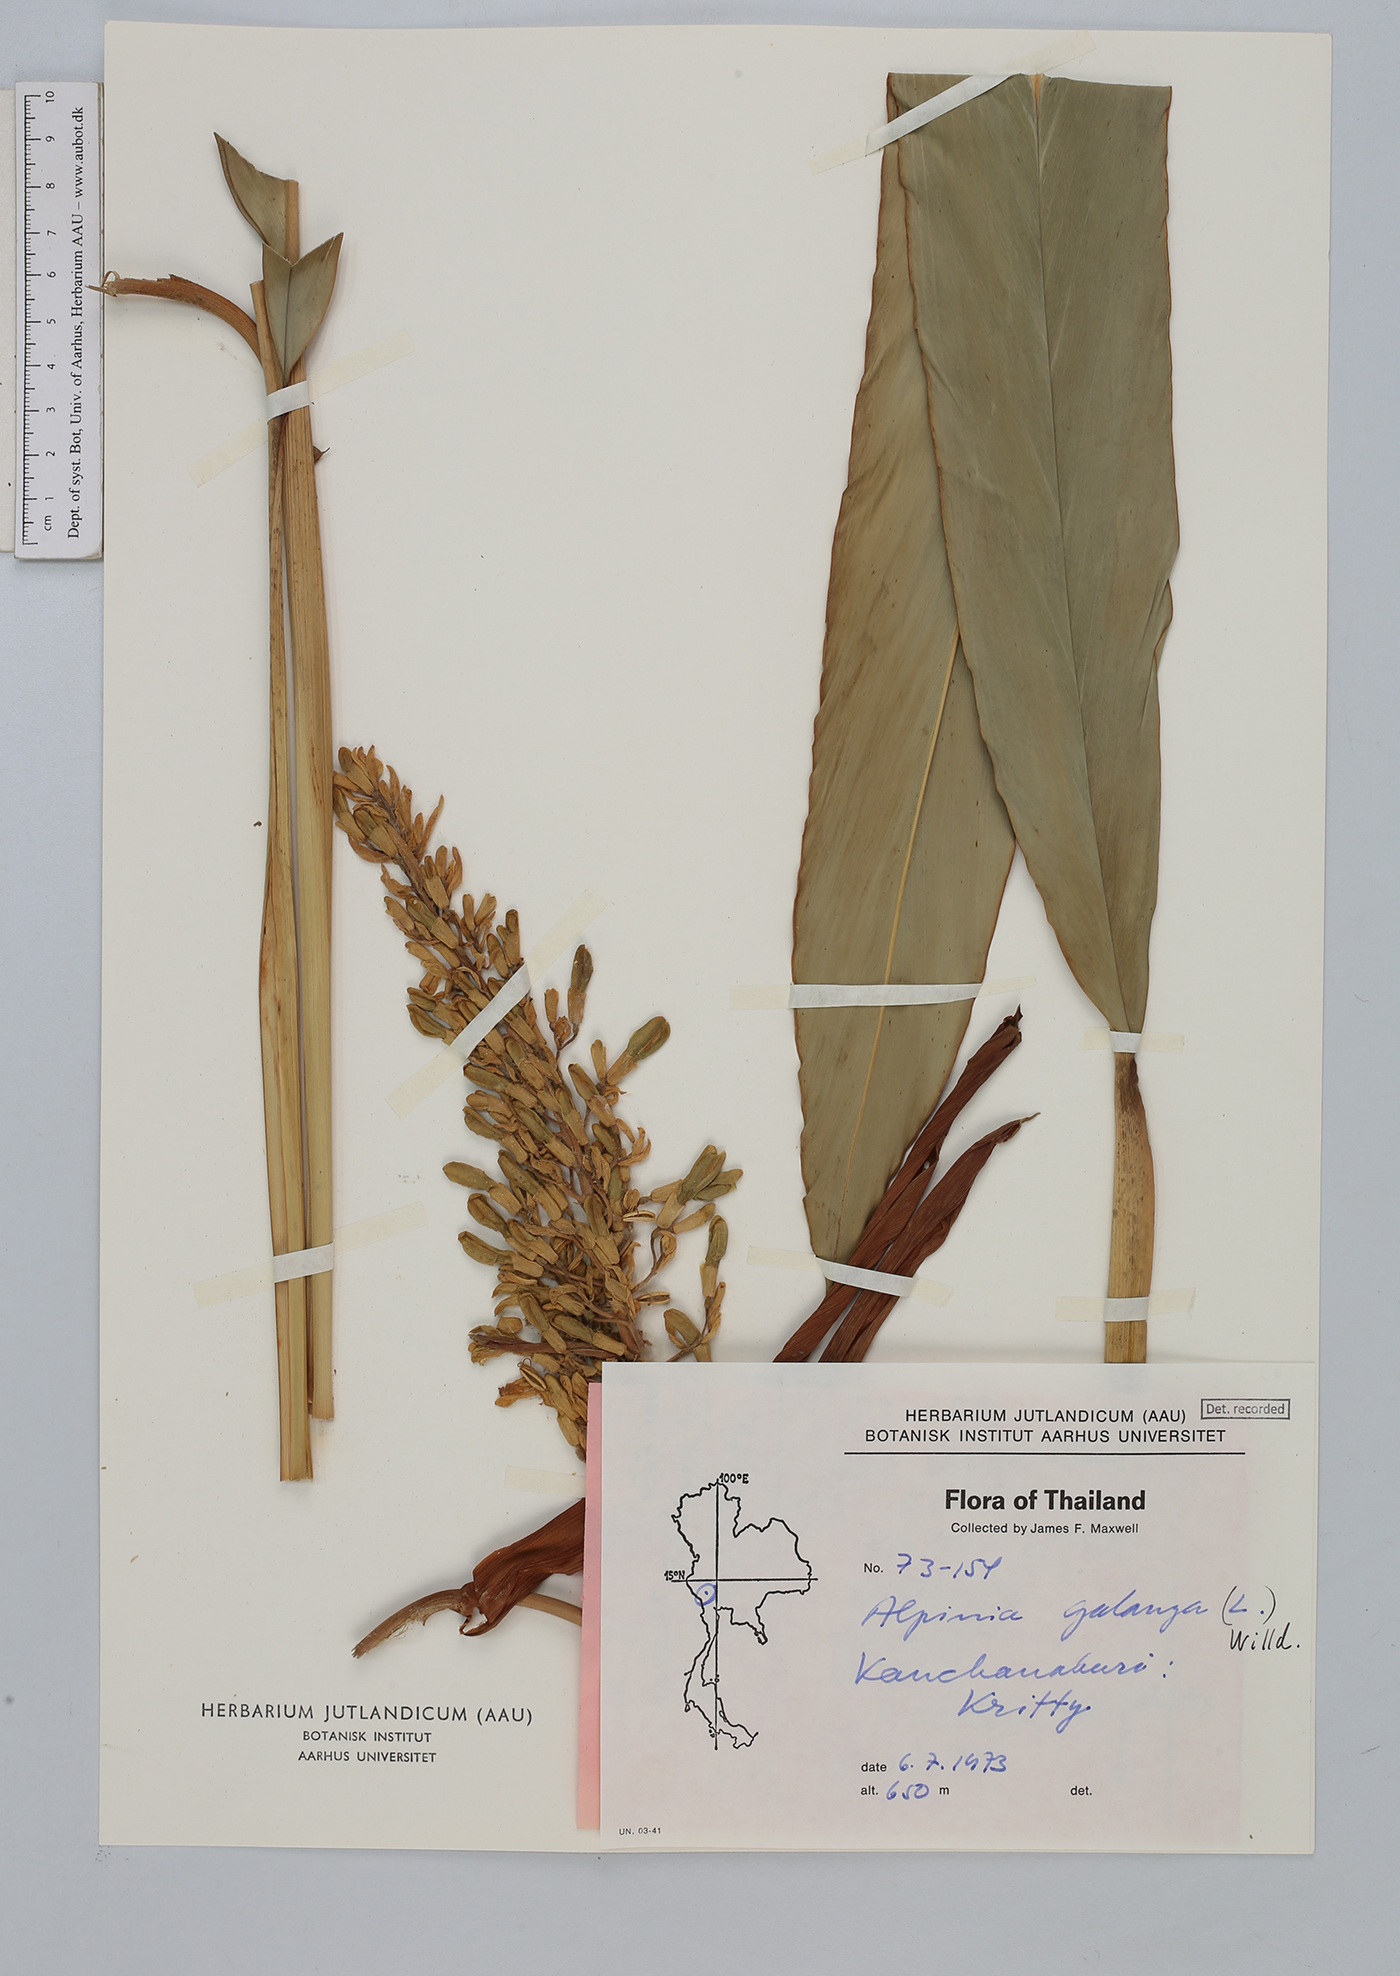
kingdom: Plantae
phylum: Tracheophyta
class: Liliopsida
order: Zingiberales
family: Zingiberaceae
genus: Alpinia
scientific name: Alpinia galanga
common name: Siamese-ginger
